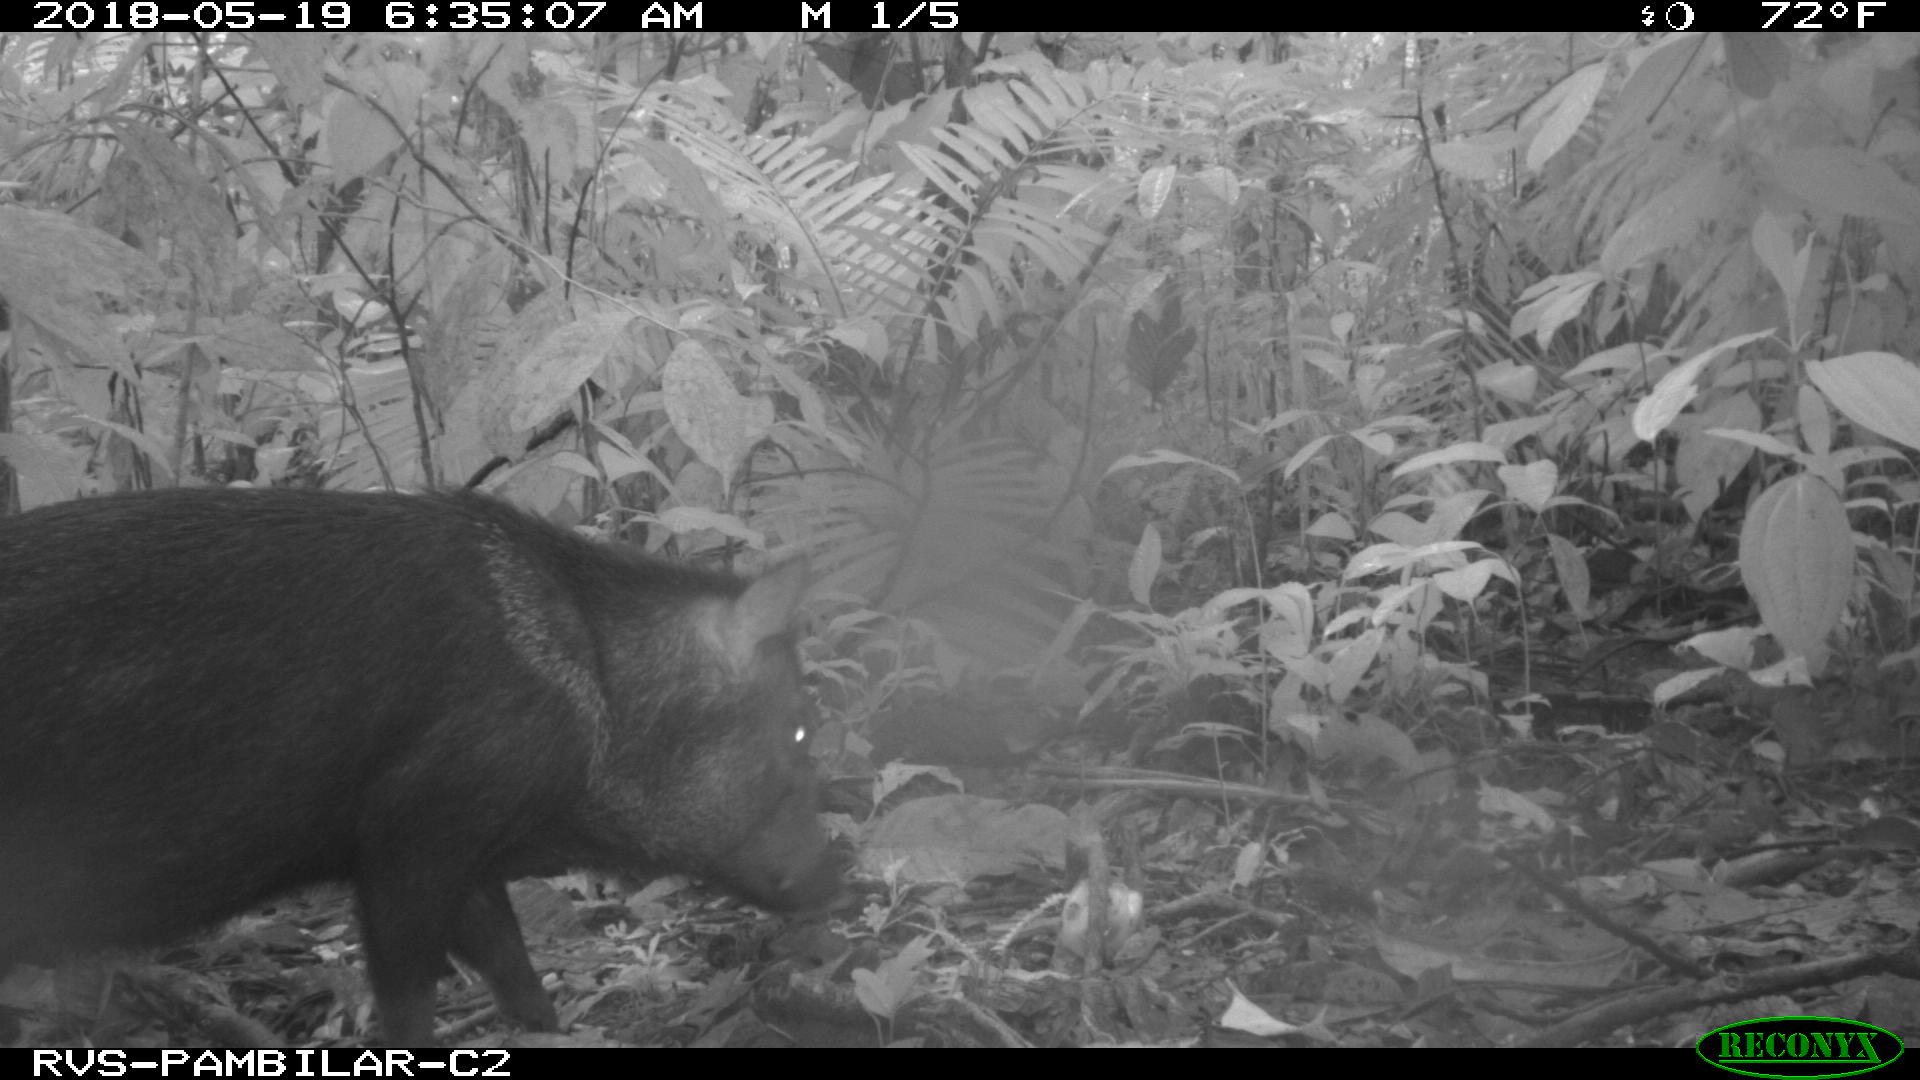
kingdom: Animalia
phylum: Chordata
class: Mammalia
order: Artiodactyla
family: Tayassuidae
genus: Pecari
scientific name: Pecari tajacu
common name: Collared peccary
